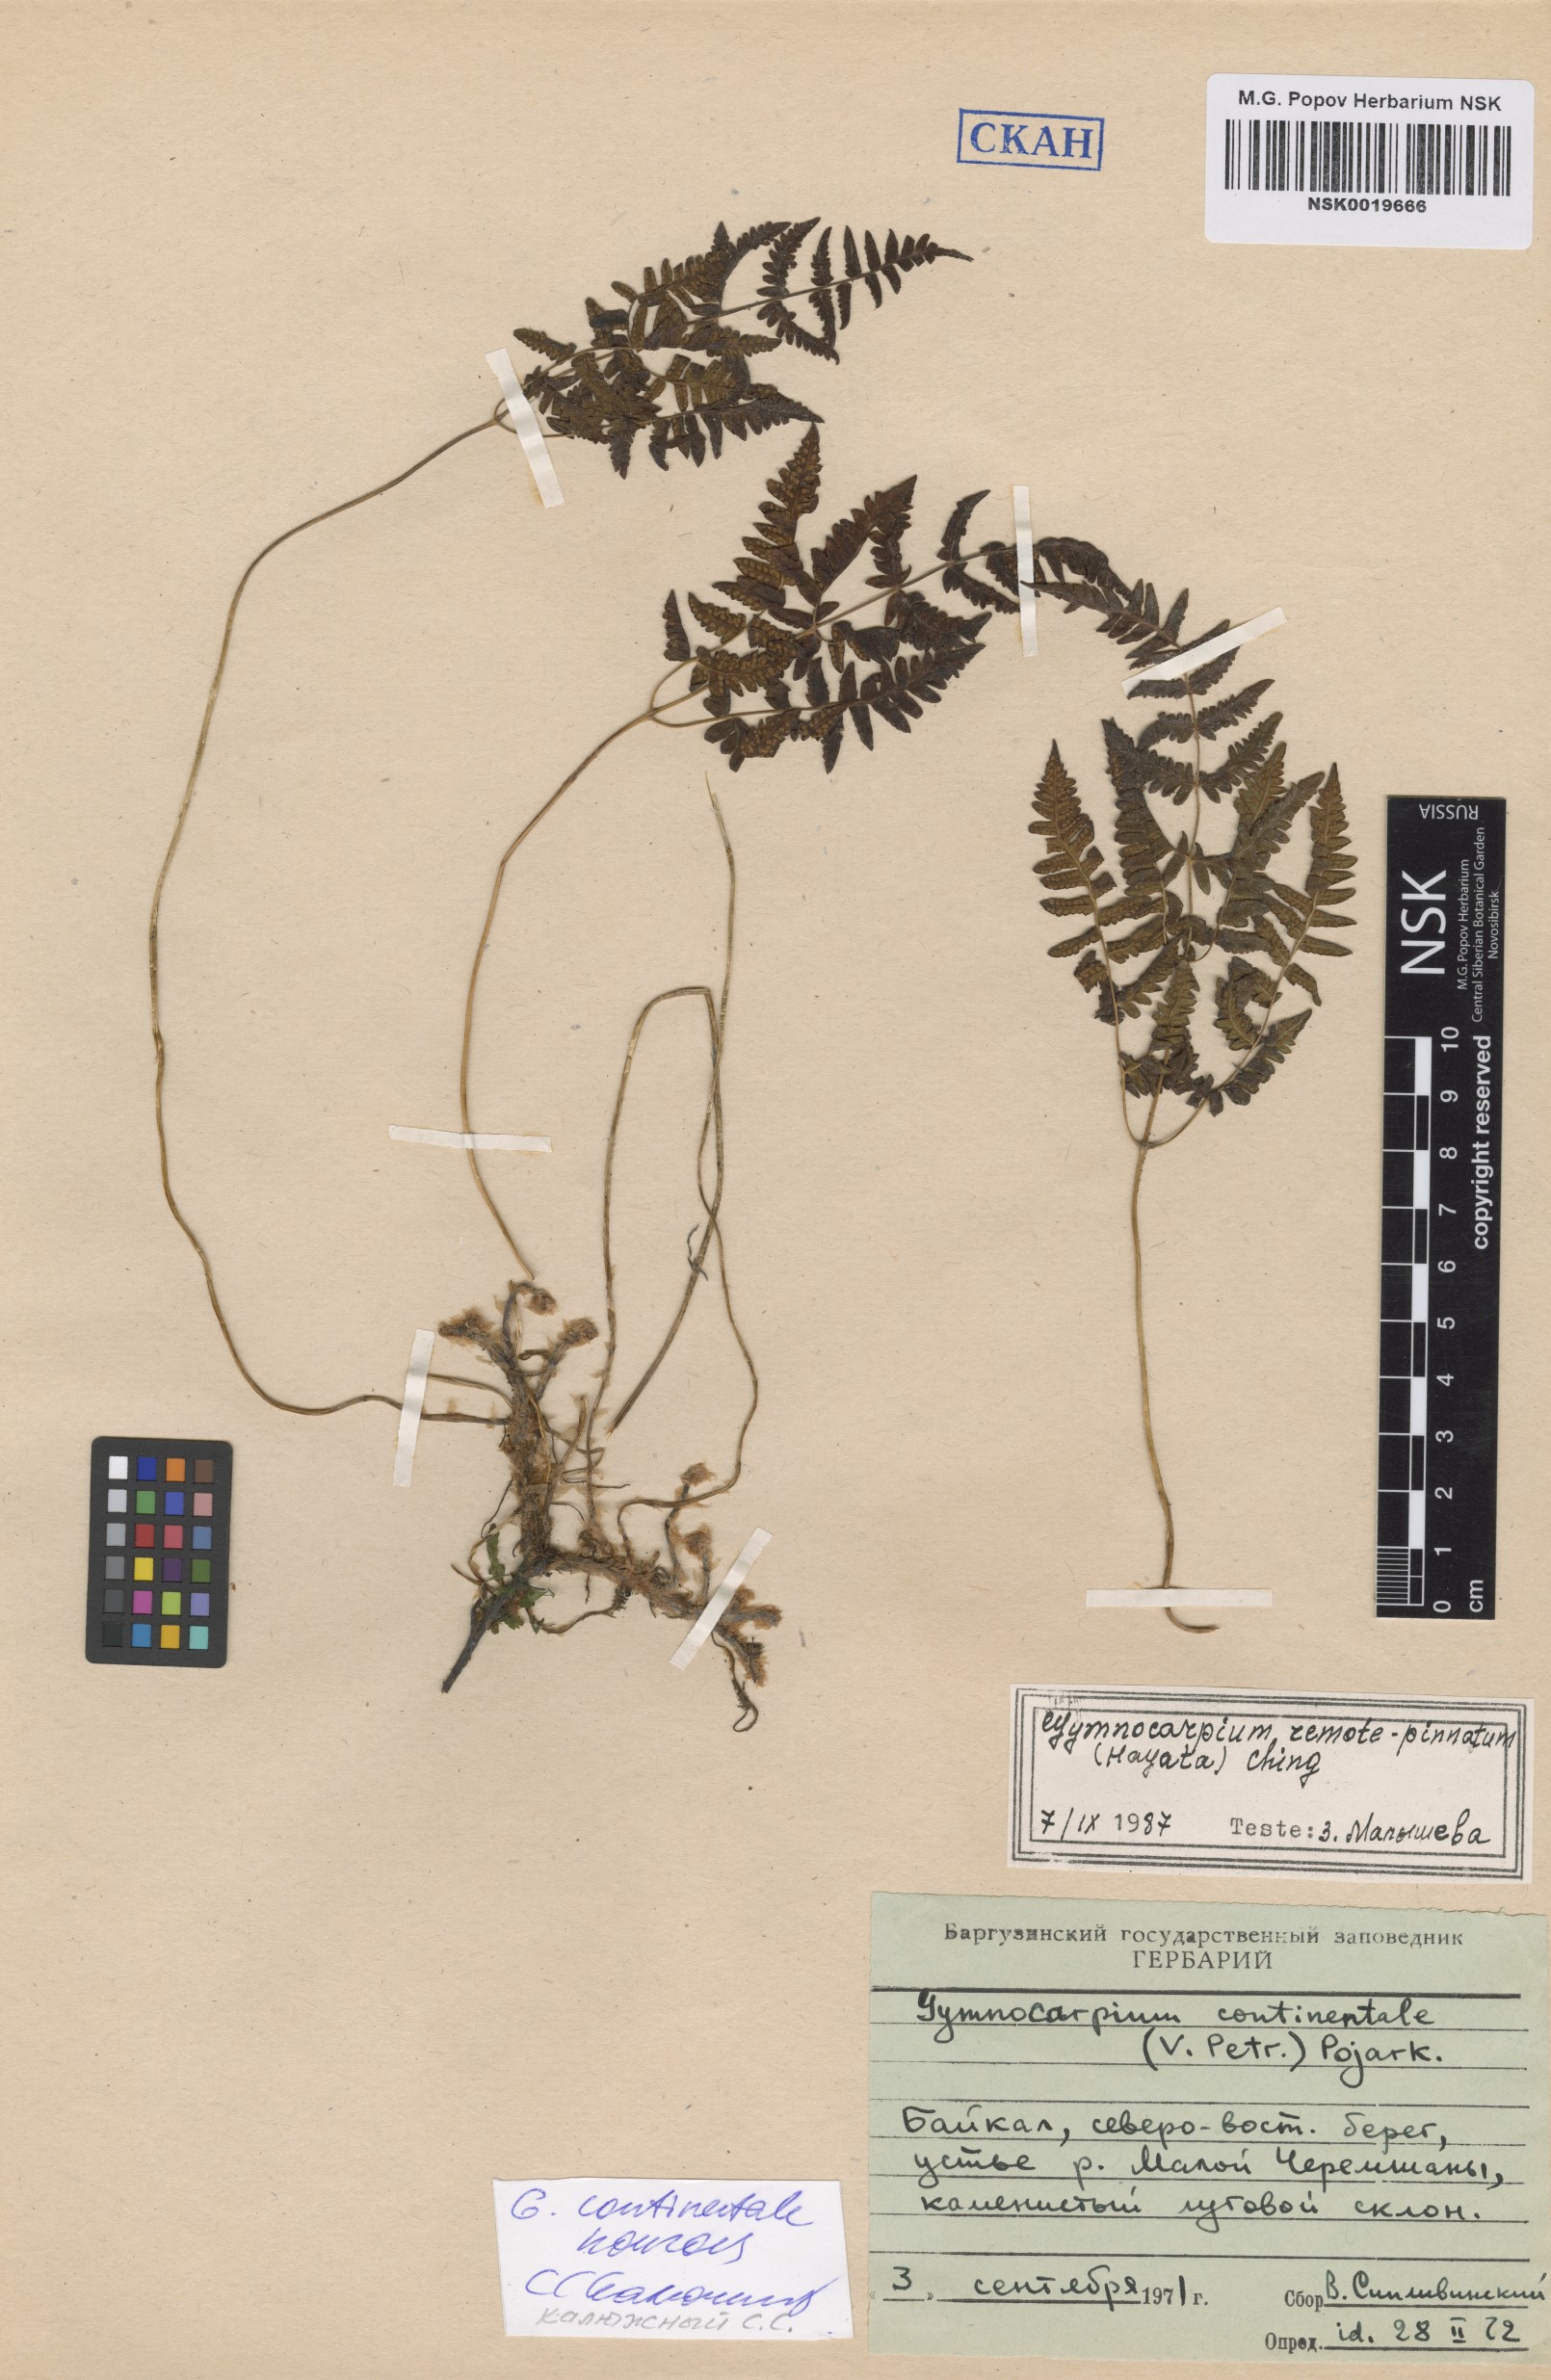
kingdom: Plantae
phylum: Tracheophyta
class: Polypodiopsida
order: Polypodiales
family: Cystopteridaceae
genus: Gymnocarpium
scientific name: Gymnocarpium continentale
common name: Asian oak fern
